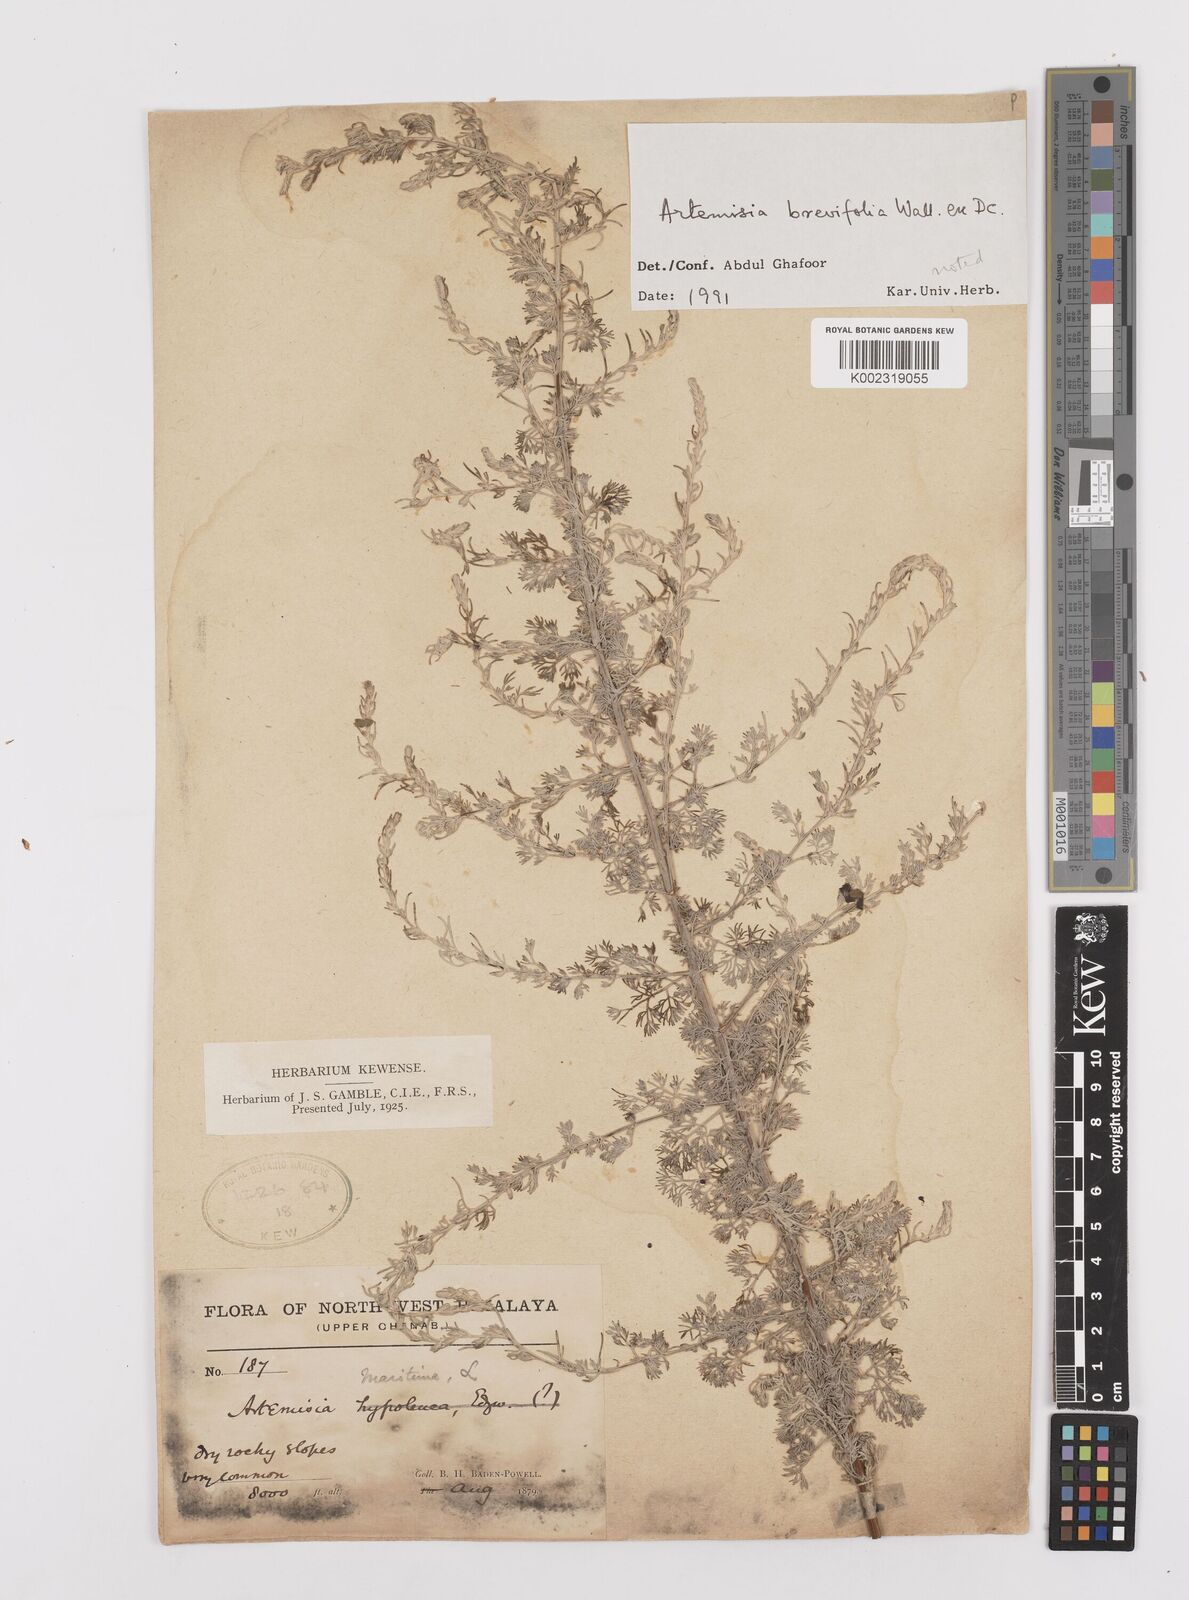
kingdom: Plantae
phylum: Tracheophyta
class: Magnoliopsida
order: Asterales
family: Asteraceae
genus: Artemisia
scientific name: Artemisia brevifolia
